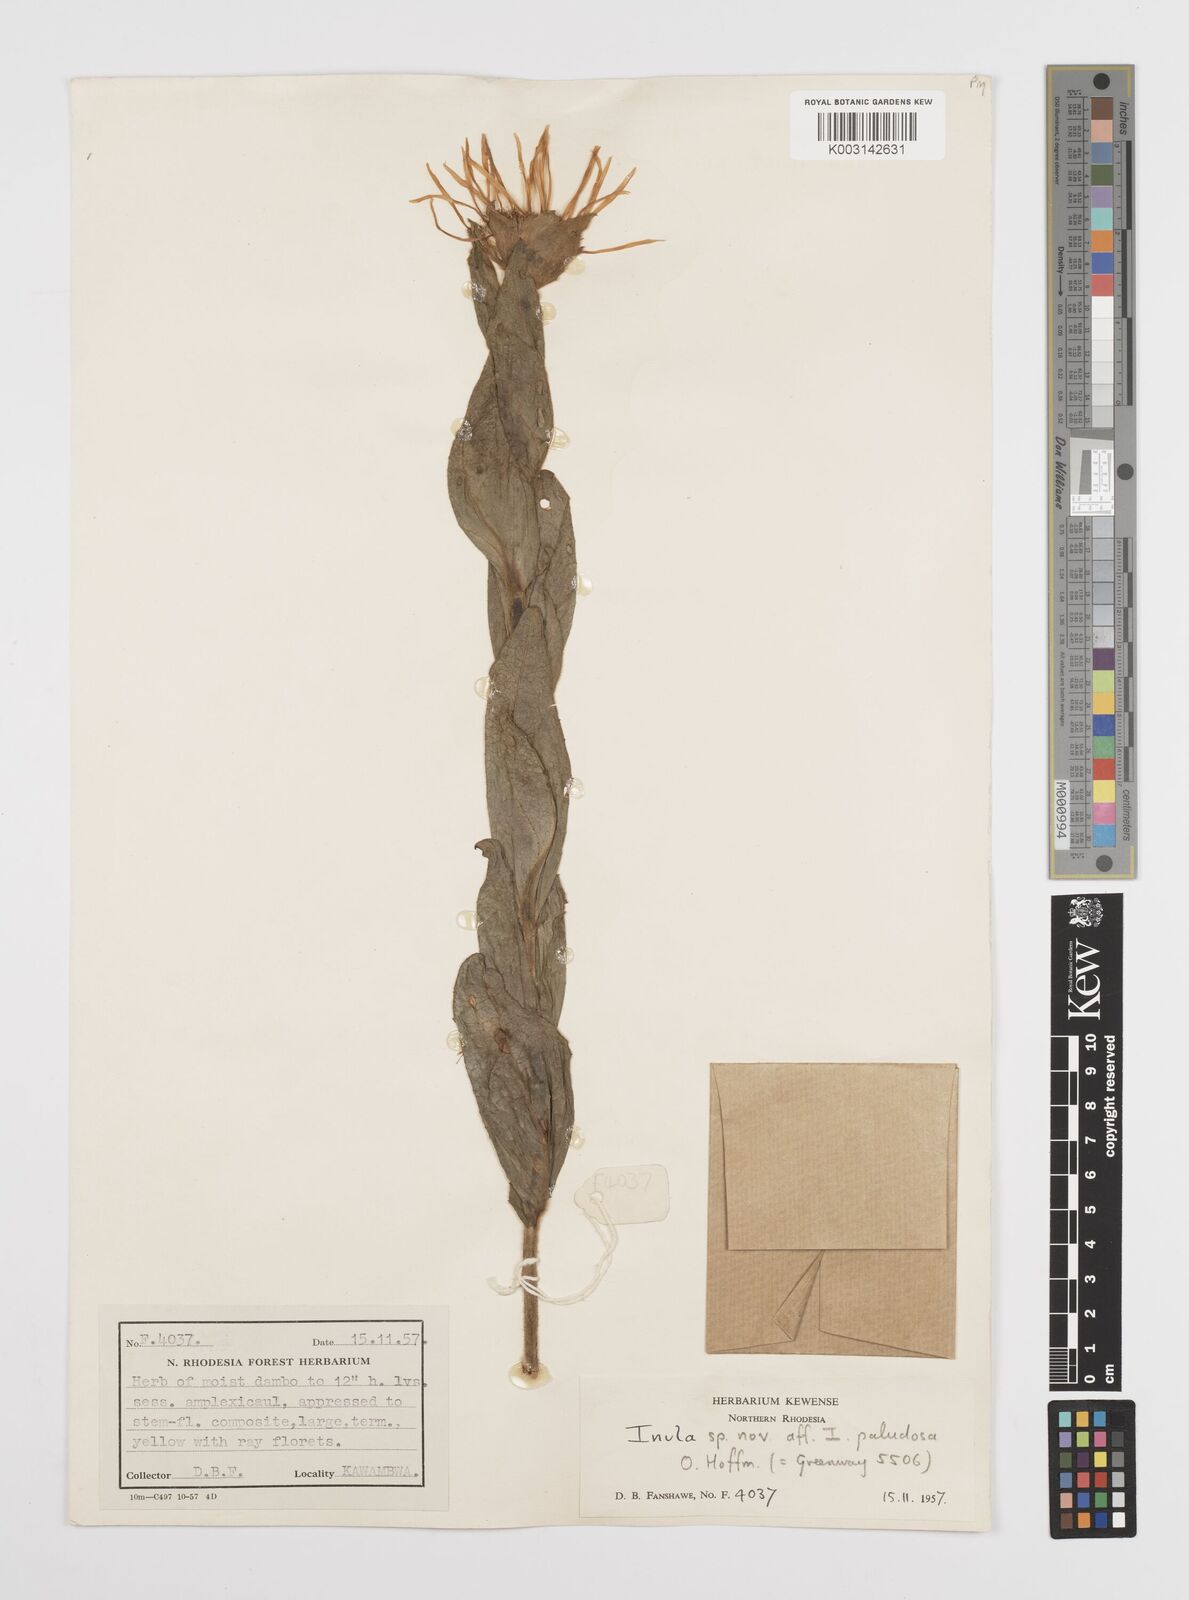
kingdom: Plantae
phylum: Tracheophyta
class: Magnoliopsida
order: Asterales
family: Asteraceae
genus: Inula
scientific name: Inula paludosa
